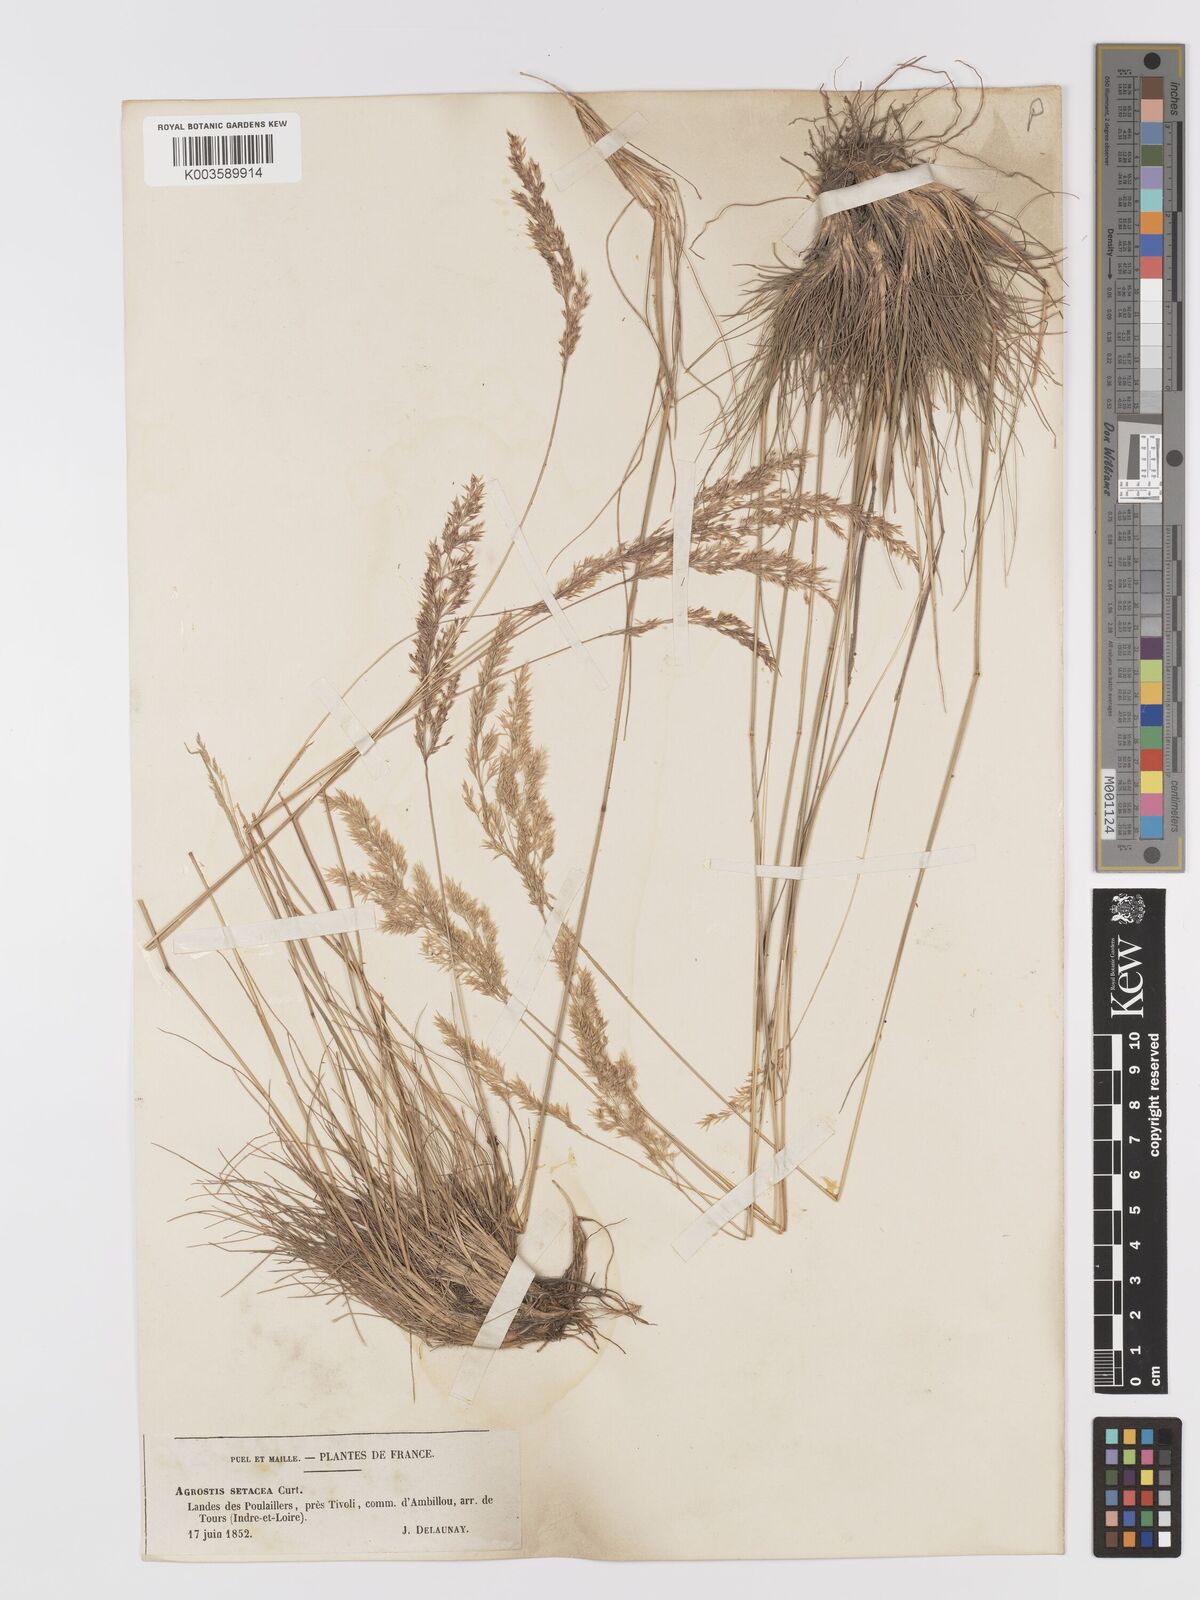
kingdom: Plantae
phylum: Tracheophyta
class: Liliopsida
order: Poales
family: Poaceae
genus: Alpagrostis
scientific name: Alpagrostis setacea
